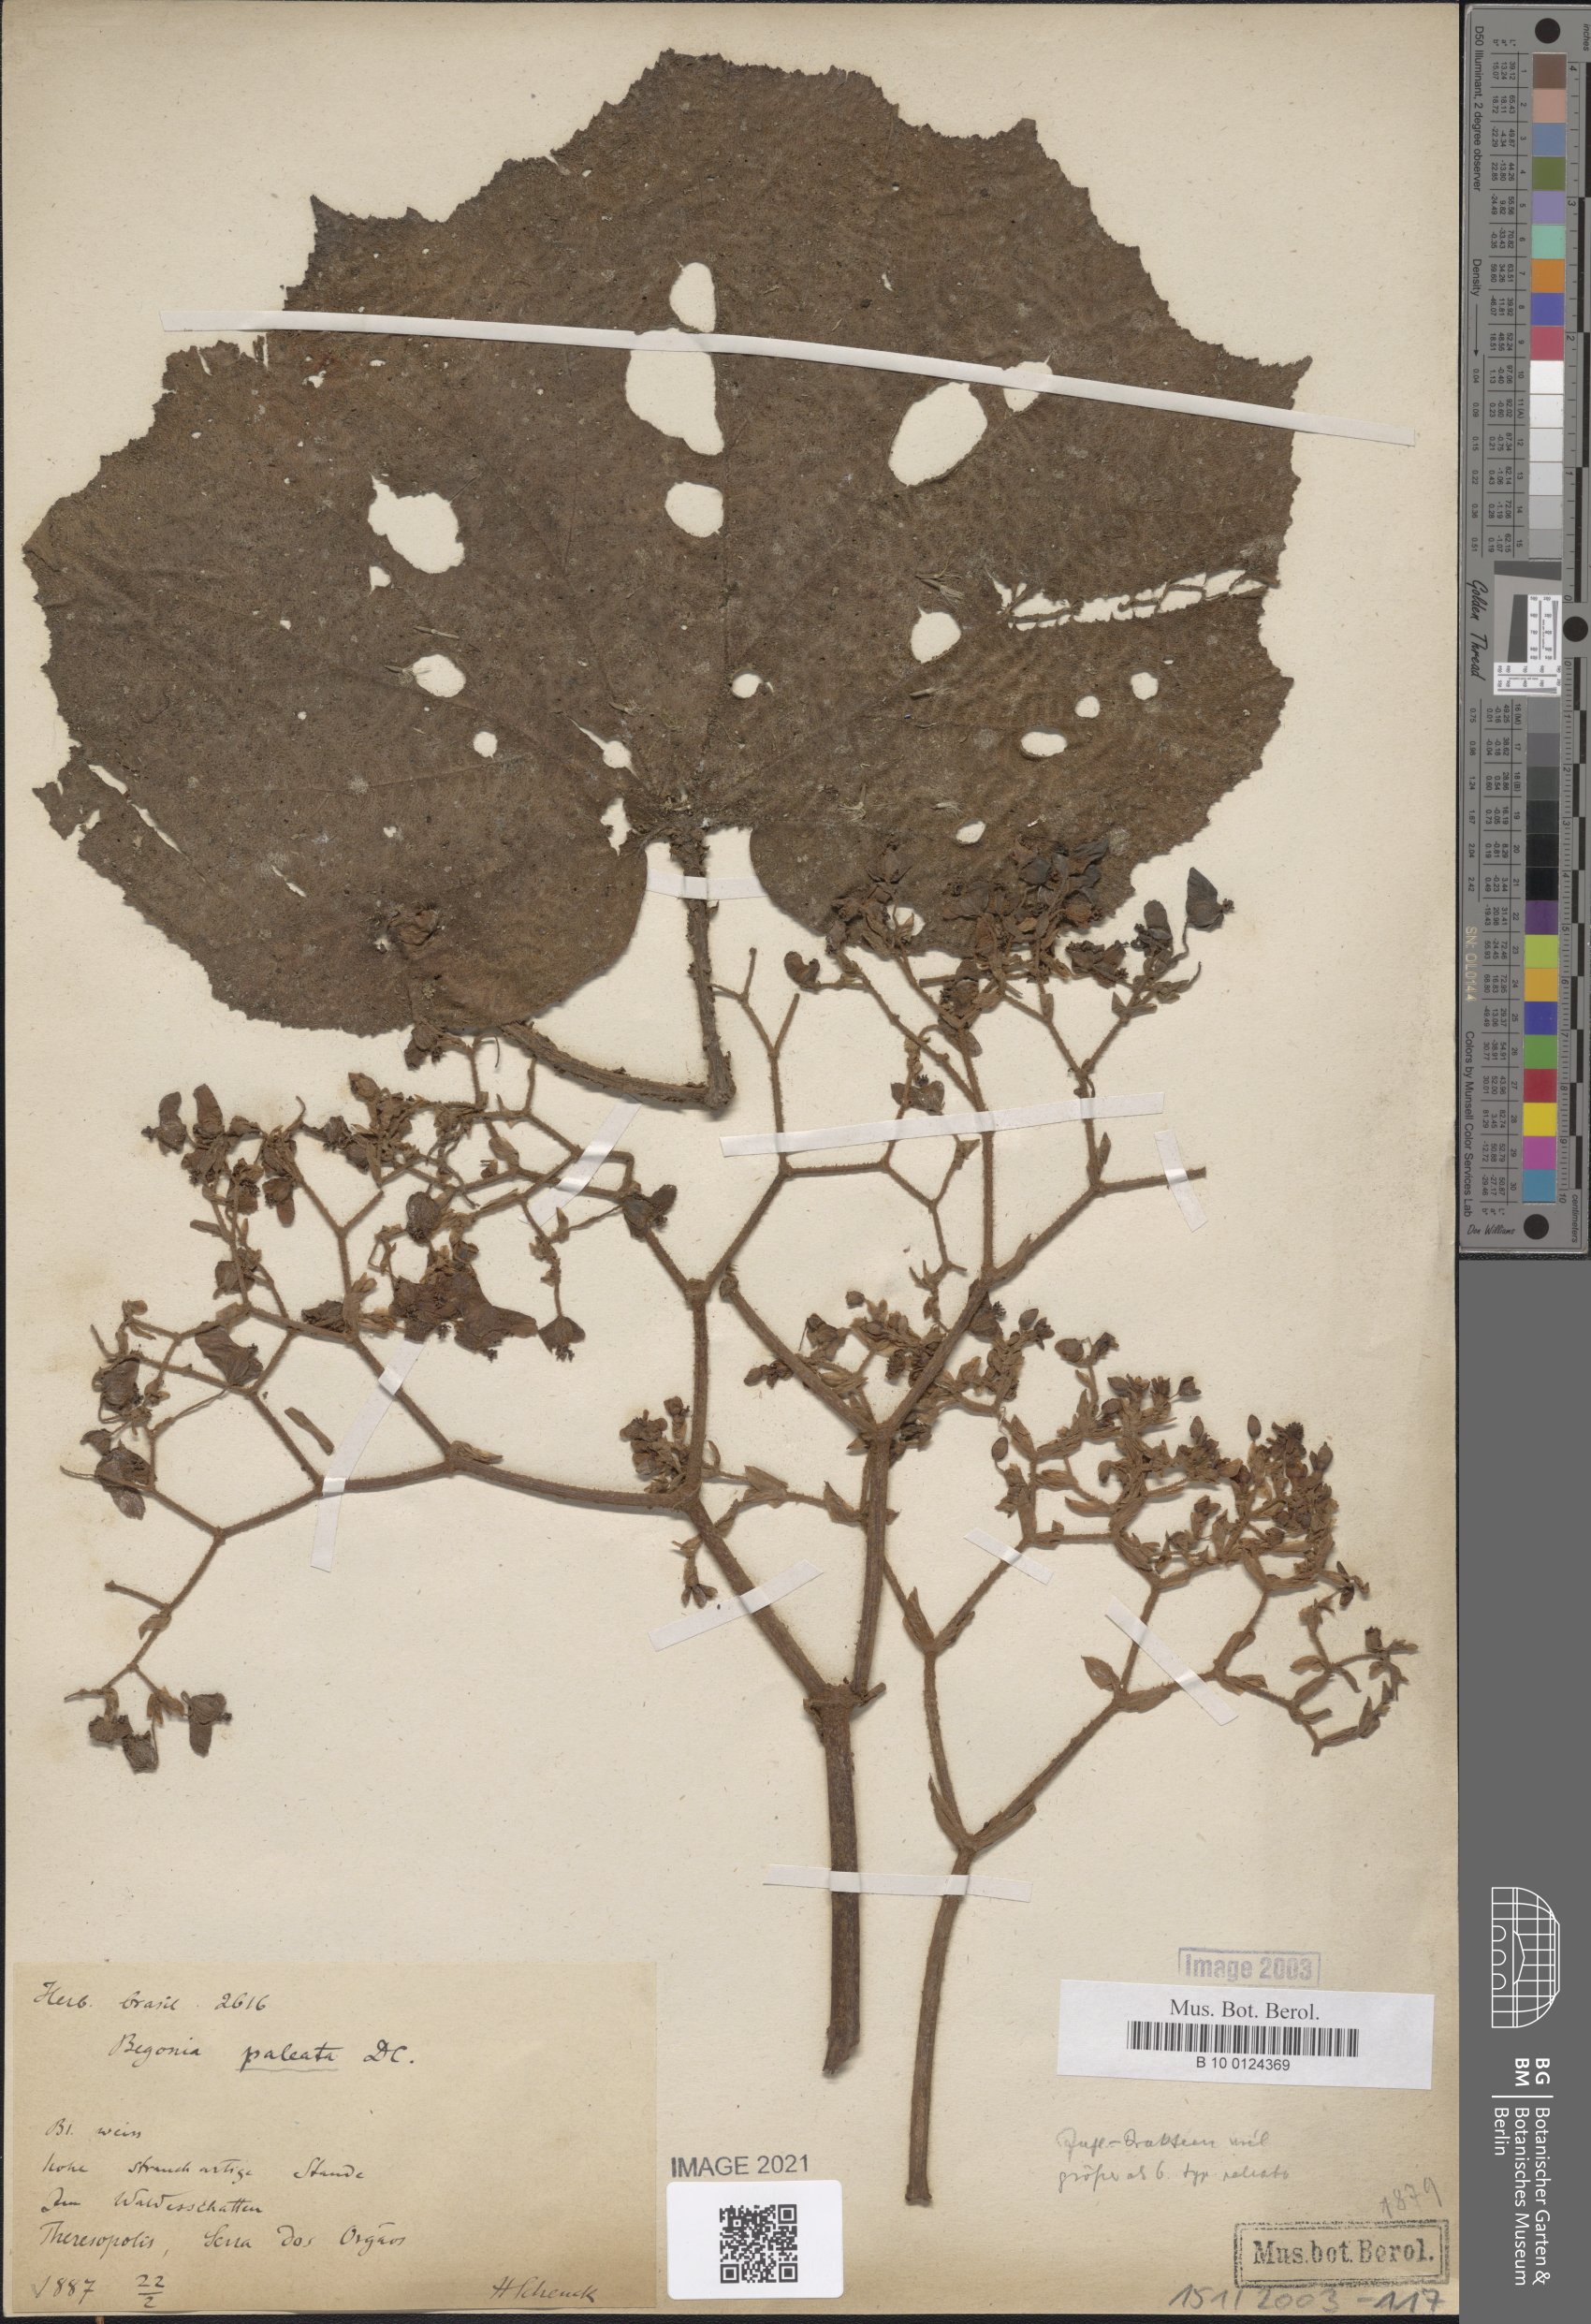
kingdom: Plantae
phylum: Tracheophyta
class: Magnoliopsida
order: Cucurbitales
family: Begoniaceae
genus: Begonia
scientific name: Begonia paleata
